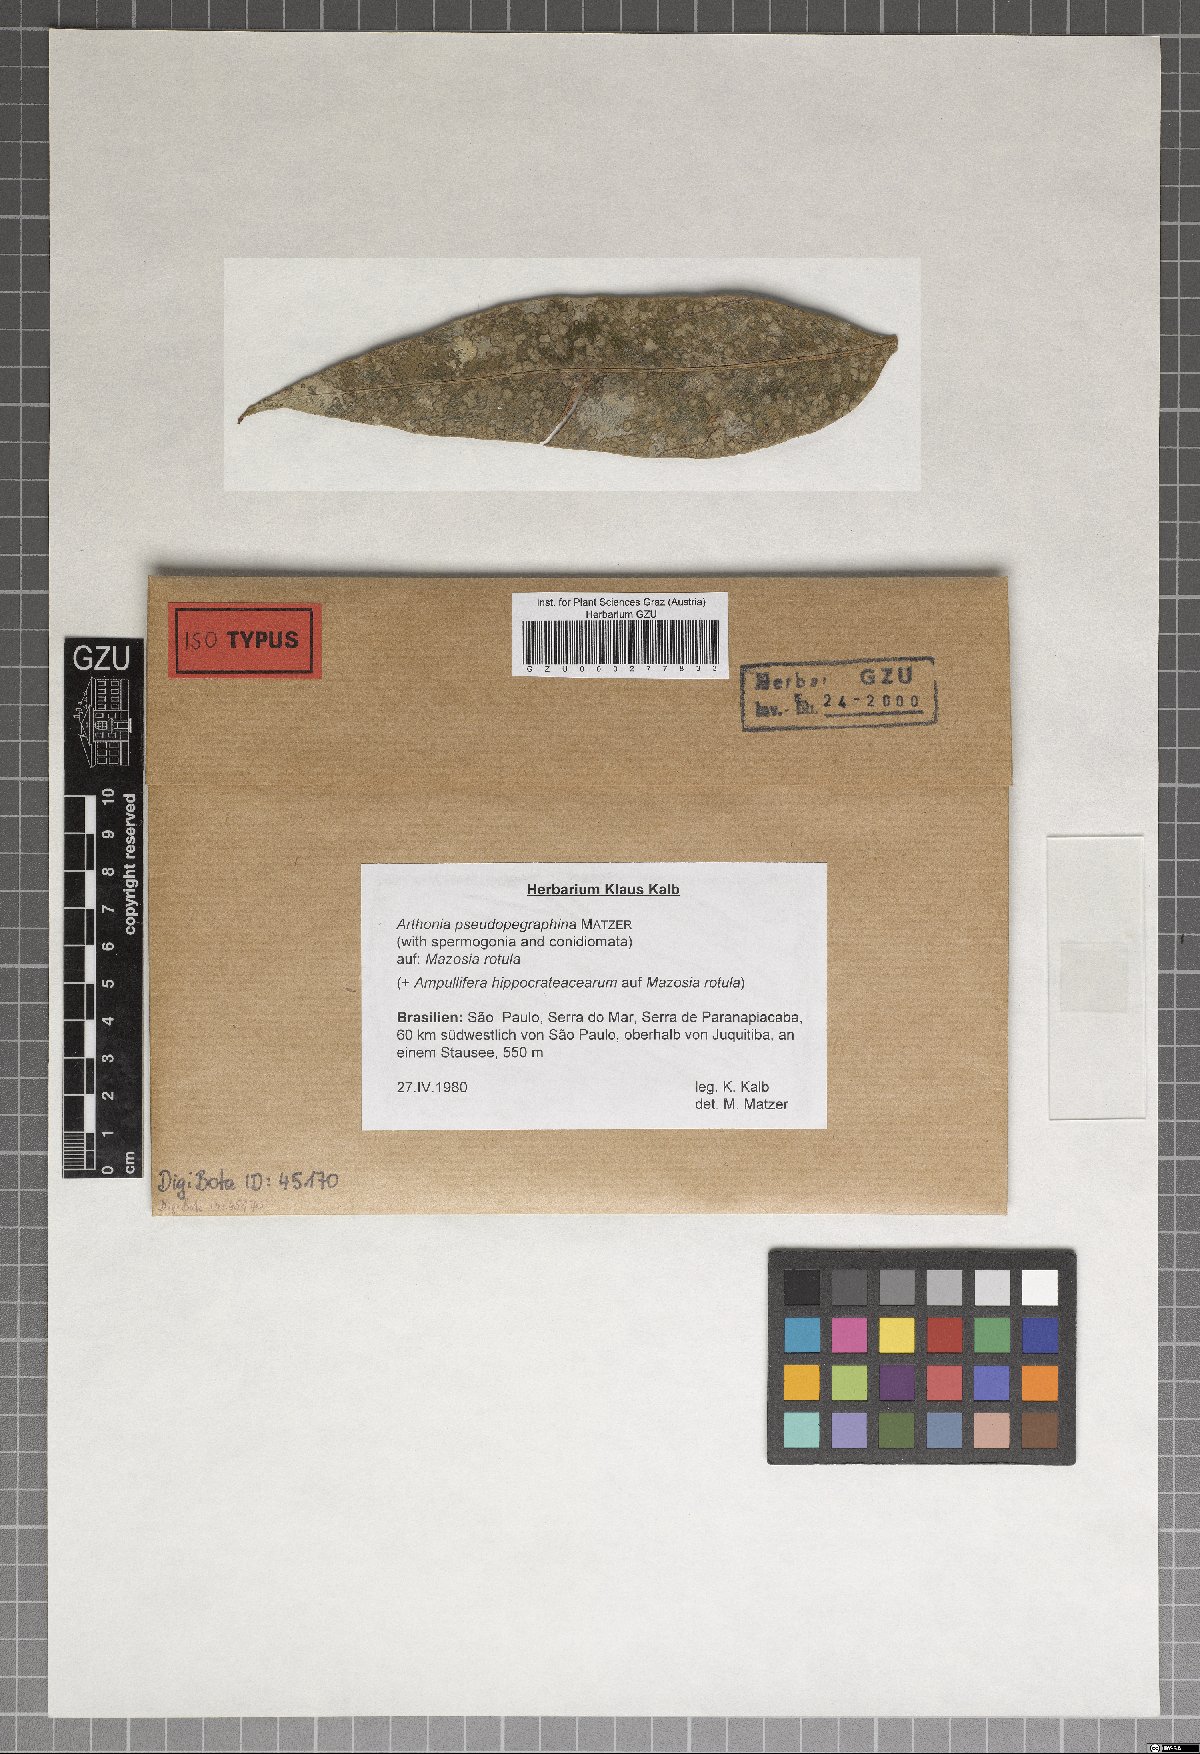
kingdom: Fungi
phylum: Ascomycota
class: Arthoniomycetes
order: Arthoniales
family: Arthoniaceae
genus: Arthonia
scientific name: Arthonia
